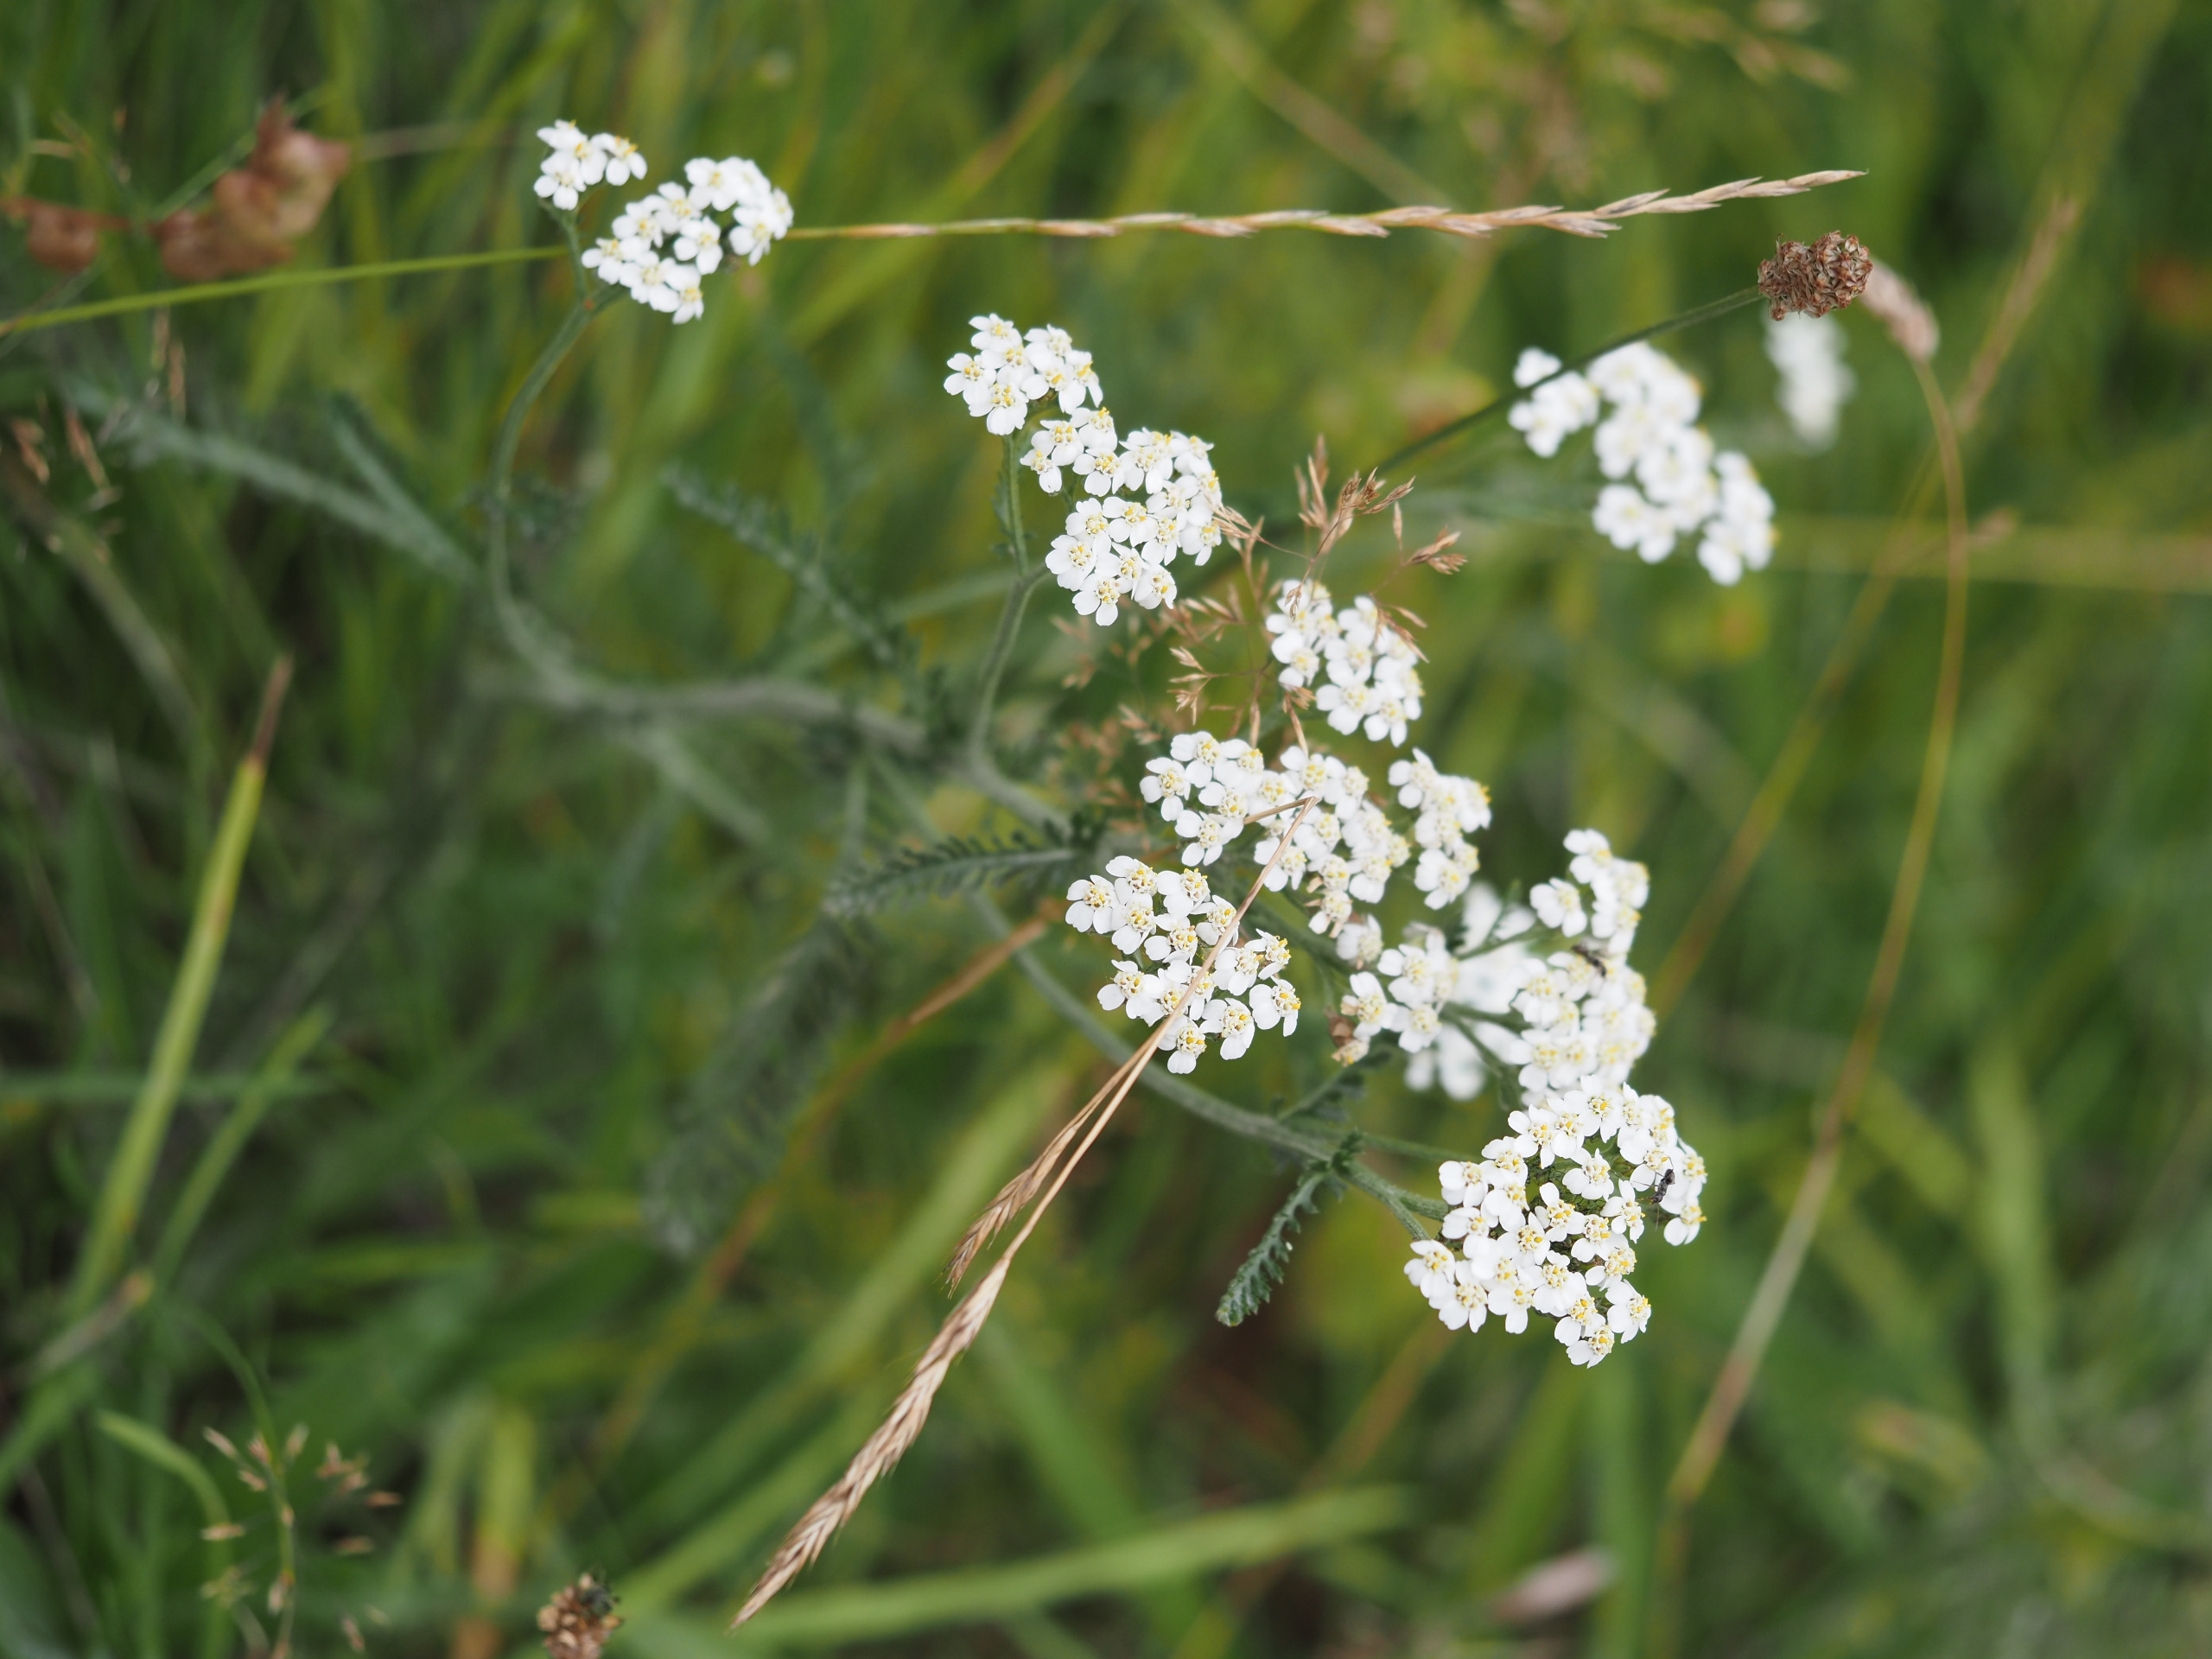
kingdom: Plantae
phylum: Tracheophyta
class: Magnoliopsida
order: Asterales
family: Asteraceae
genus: Achillea
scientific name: Achillea millefolium
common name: Almindelig røllike
